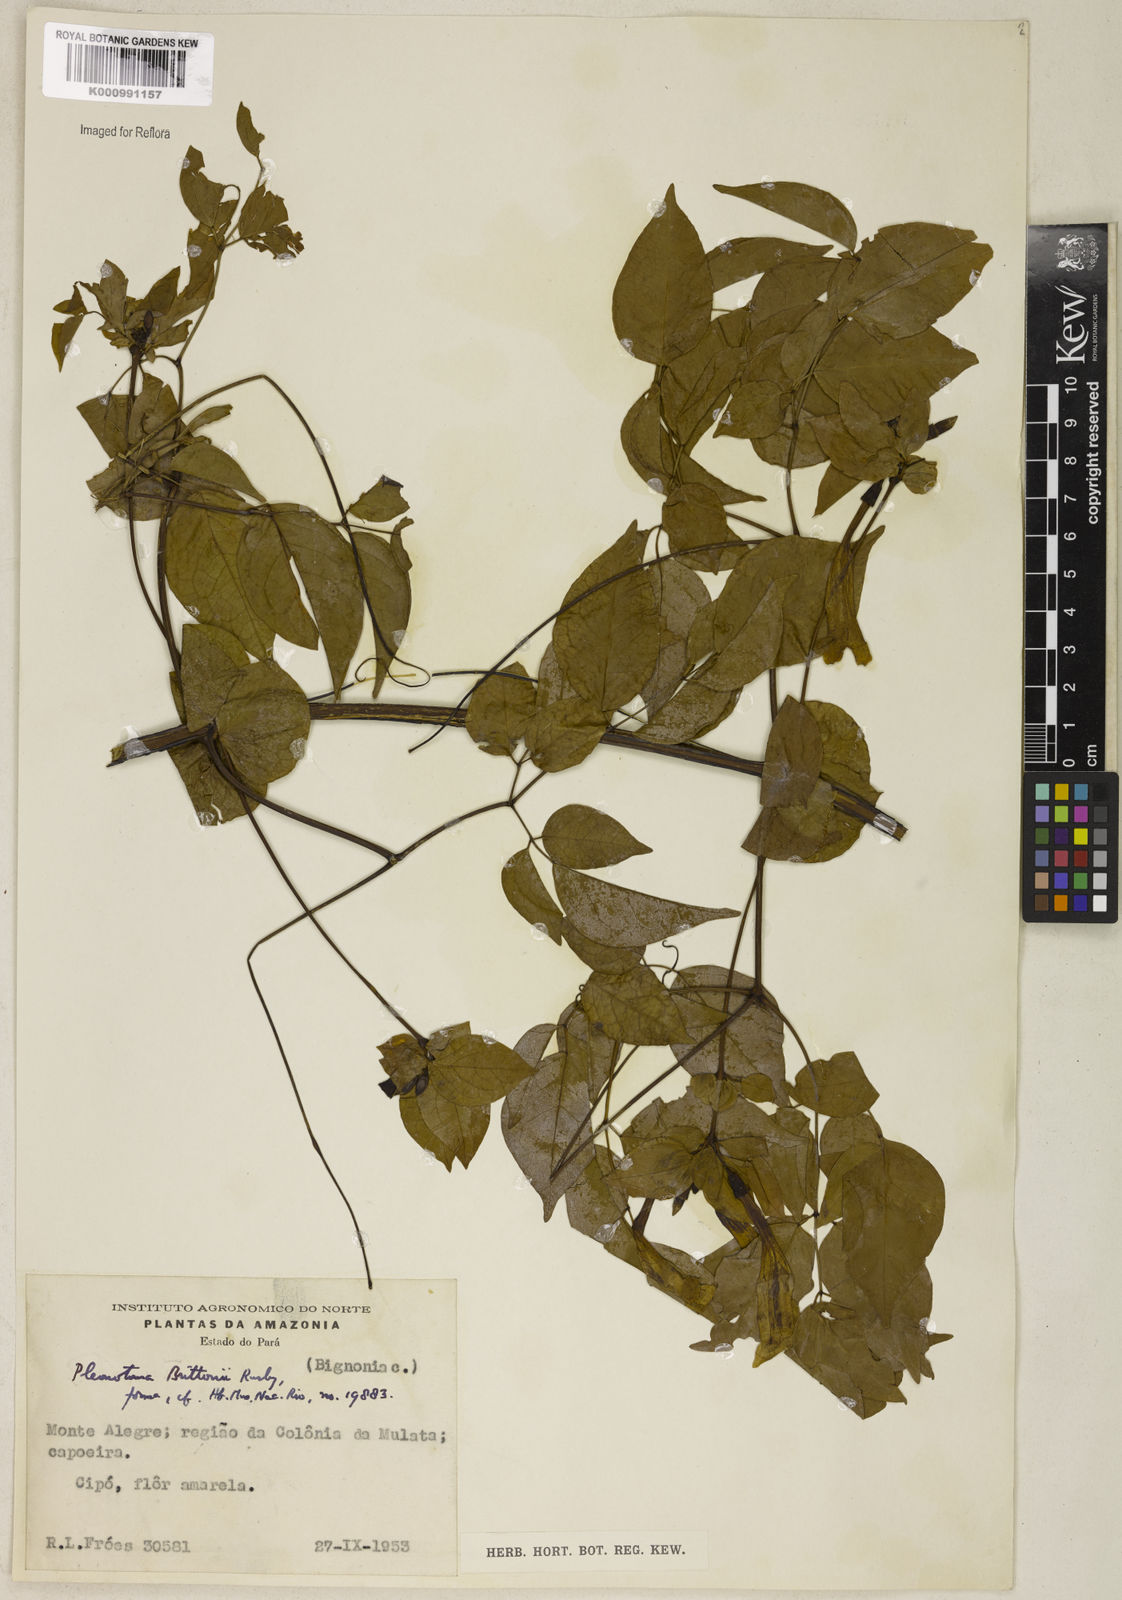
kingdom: Plantae
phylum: Tracheophyta
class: Magnoliopsida
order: Lamiales
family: Bignoniaceae
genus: Pleonotoma
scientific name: Pleonotoma jasminifolia
